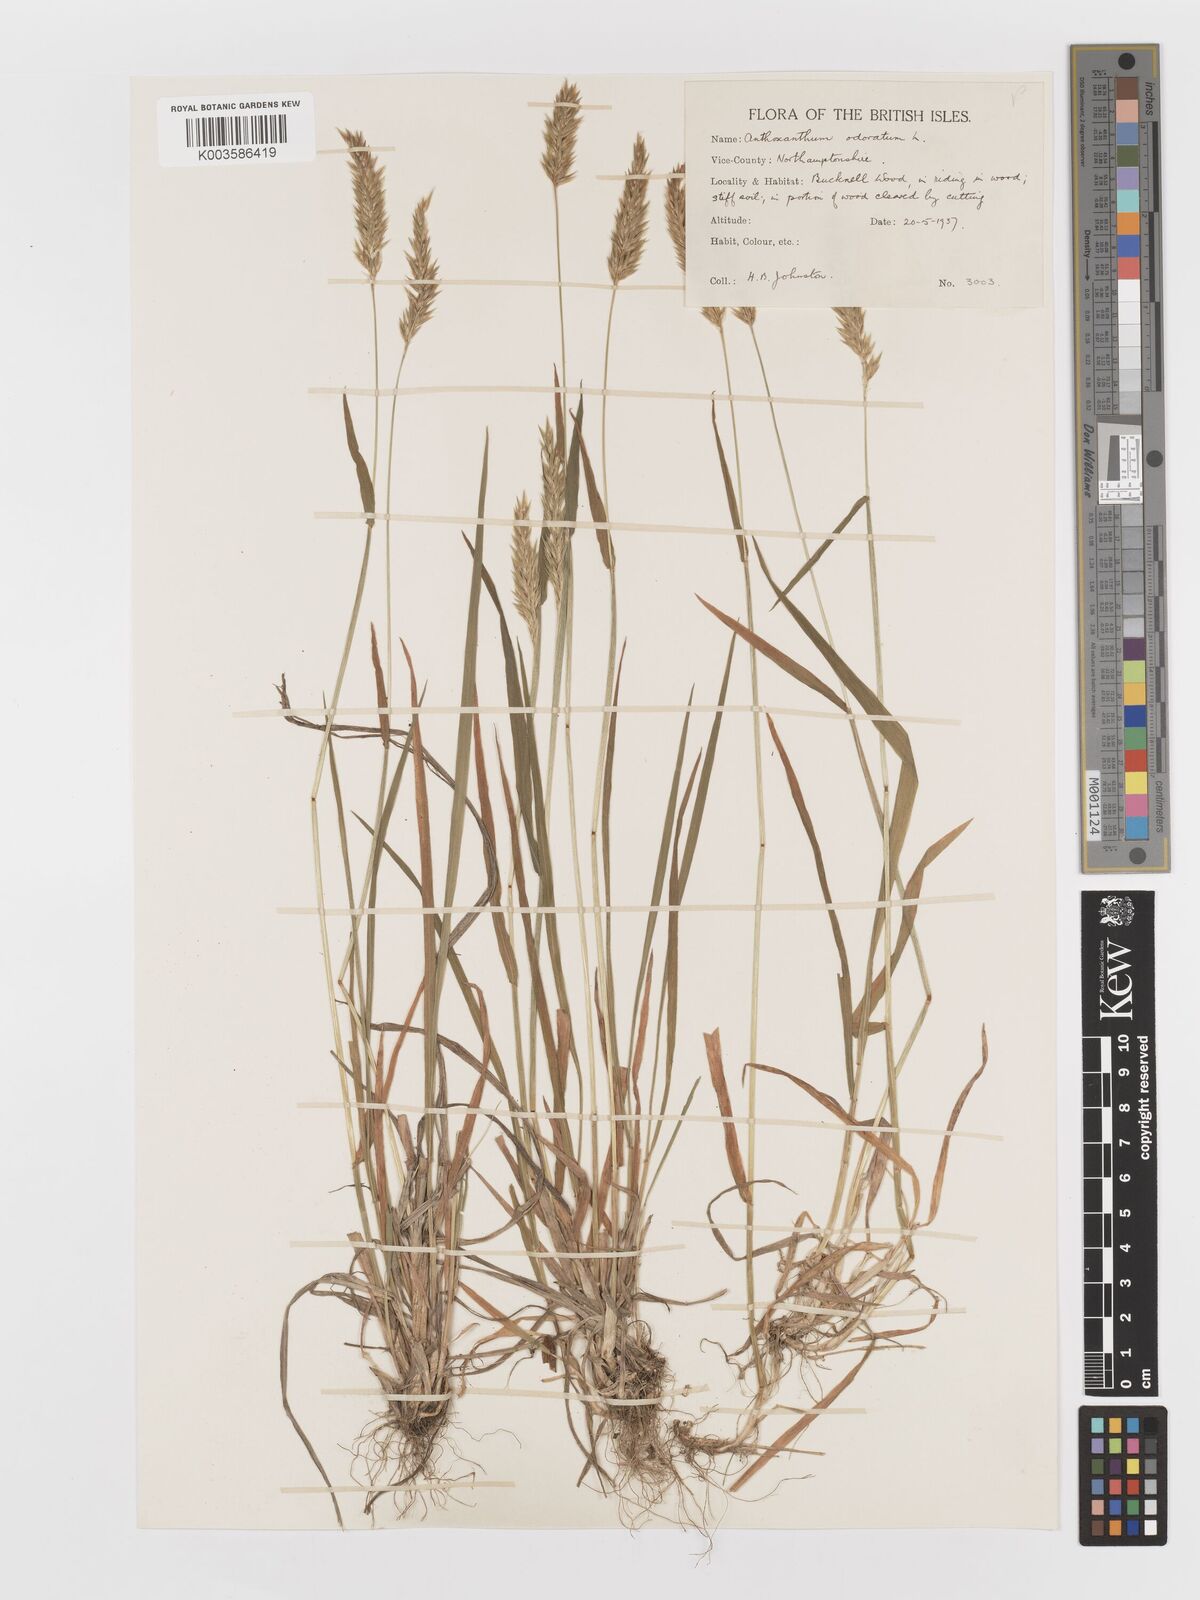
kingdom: Plantae
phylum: Tracheophyta
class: Liliopsida
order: Poales
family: Poaceae
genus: Anthoxanthum
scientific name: Anthoxanthum odoratum
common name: Sweet vernalgrass
